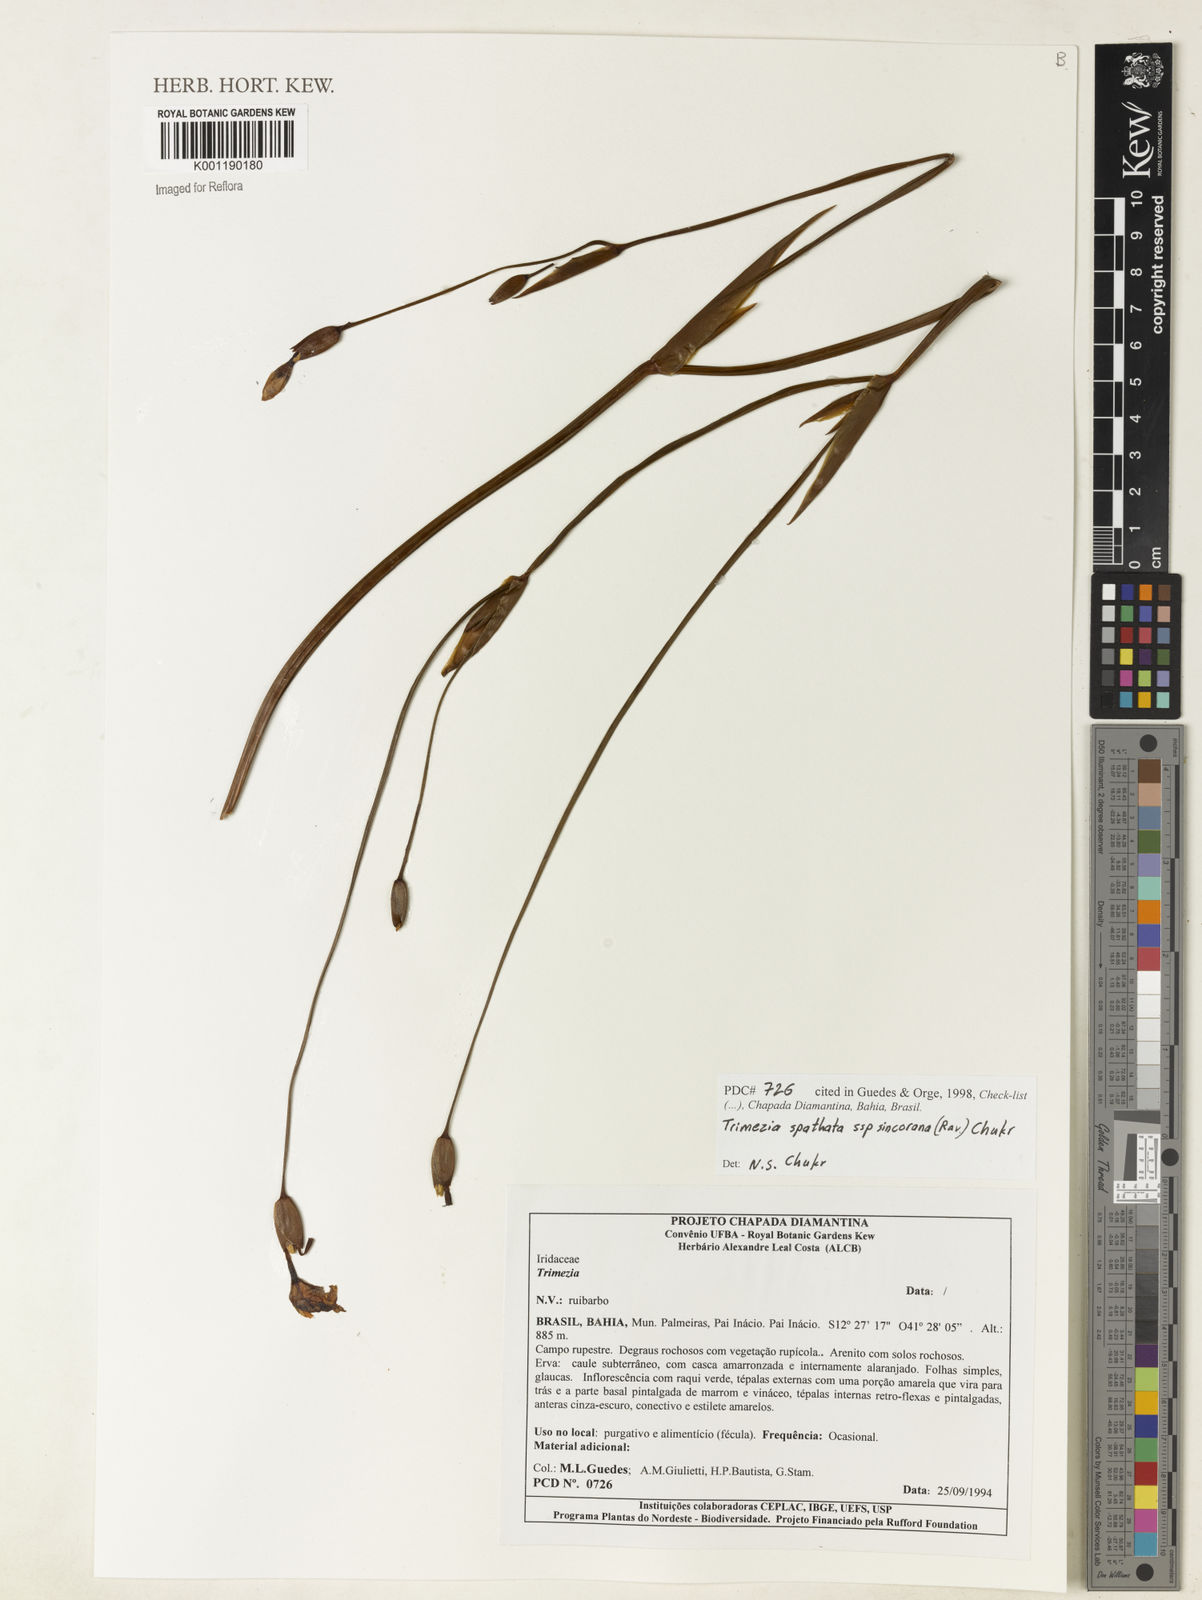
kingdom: Plantae
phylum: Tracheophyta
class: Liliopsida
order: Asparagales
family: Iridaceae
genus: Trimezia
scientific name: Trimezia spathata
